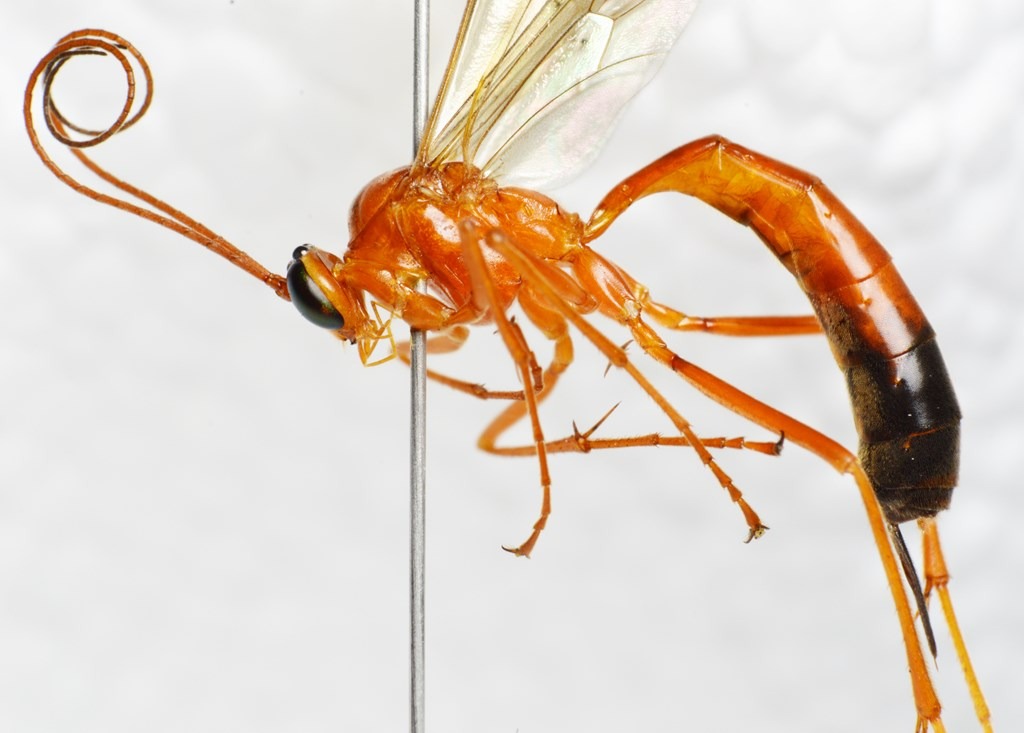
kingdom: Animalia
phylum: Arthropoda
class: Insecta
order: Hymenoptera
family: Ichneumonidae
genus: Netelia
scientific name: Netelia melanura
